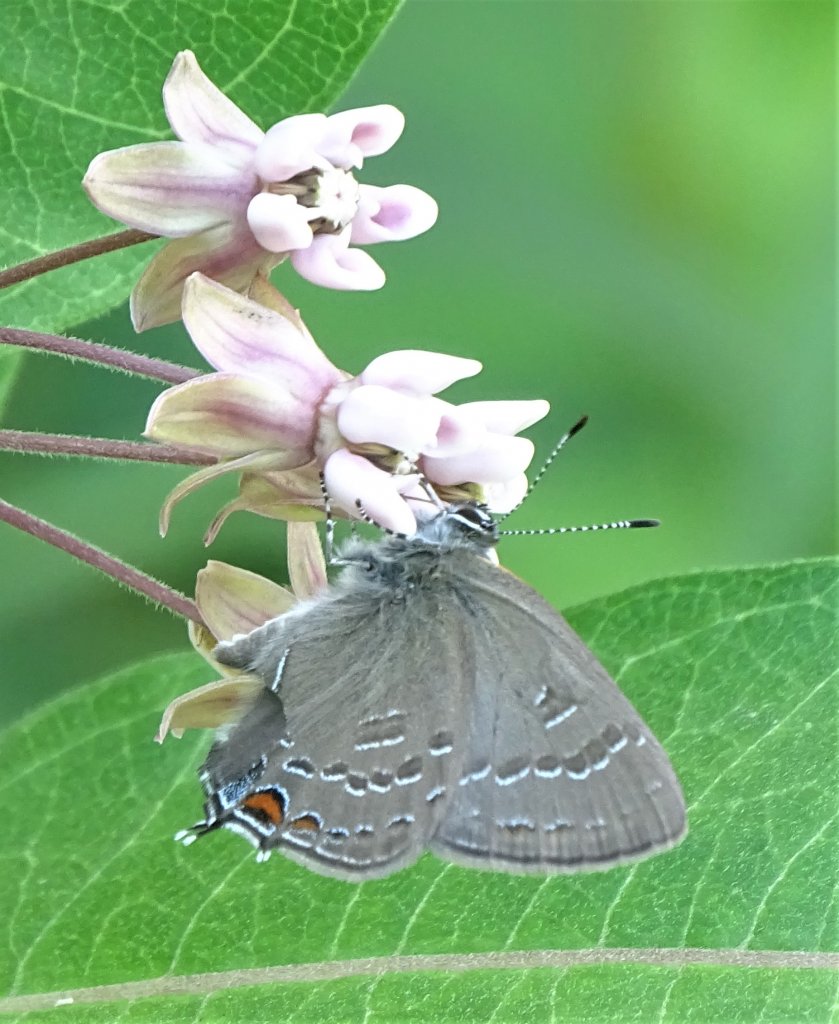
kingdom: Animalia
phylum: Arthropoda
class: Insecta
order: Lepidoptera
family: Lycaenidae
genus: Satyrium
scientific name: Satyrium calanus
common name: Banded Hairstreak
